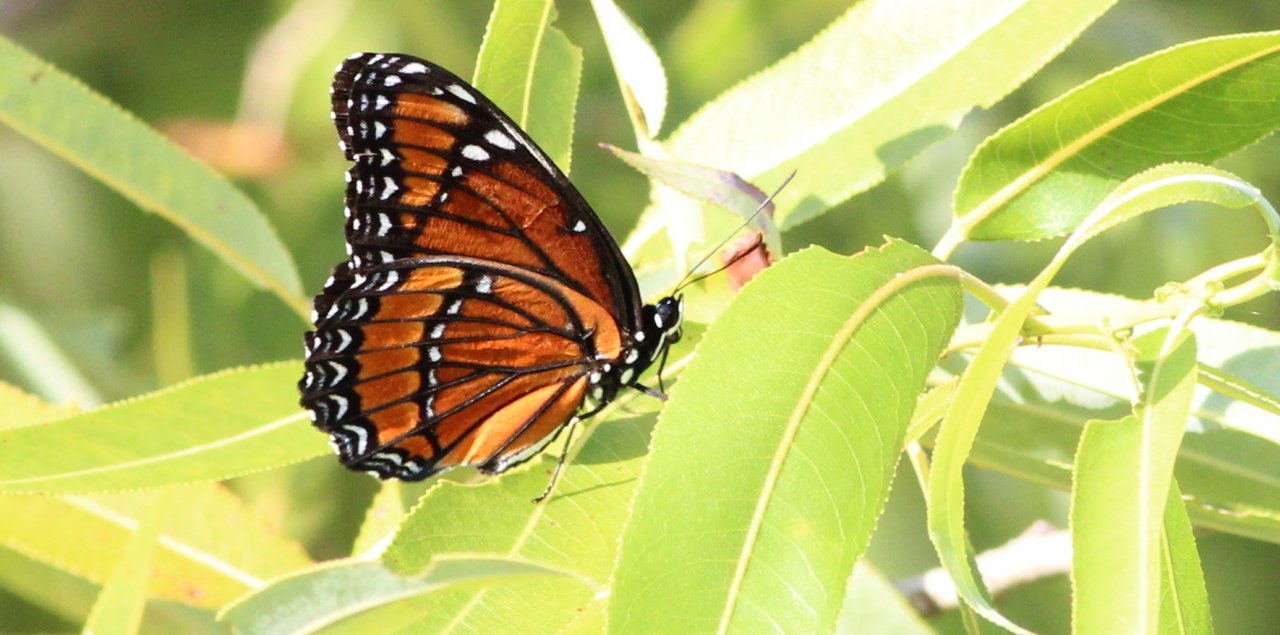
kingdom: Animalia
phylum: Arthropoda
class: Insecta
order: Lepidoptera
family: Nymphalidae
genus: Limenitis
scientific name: Limenitis archippus
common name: Viceroy
